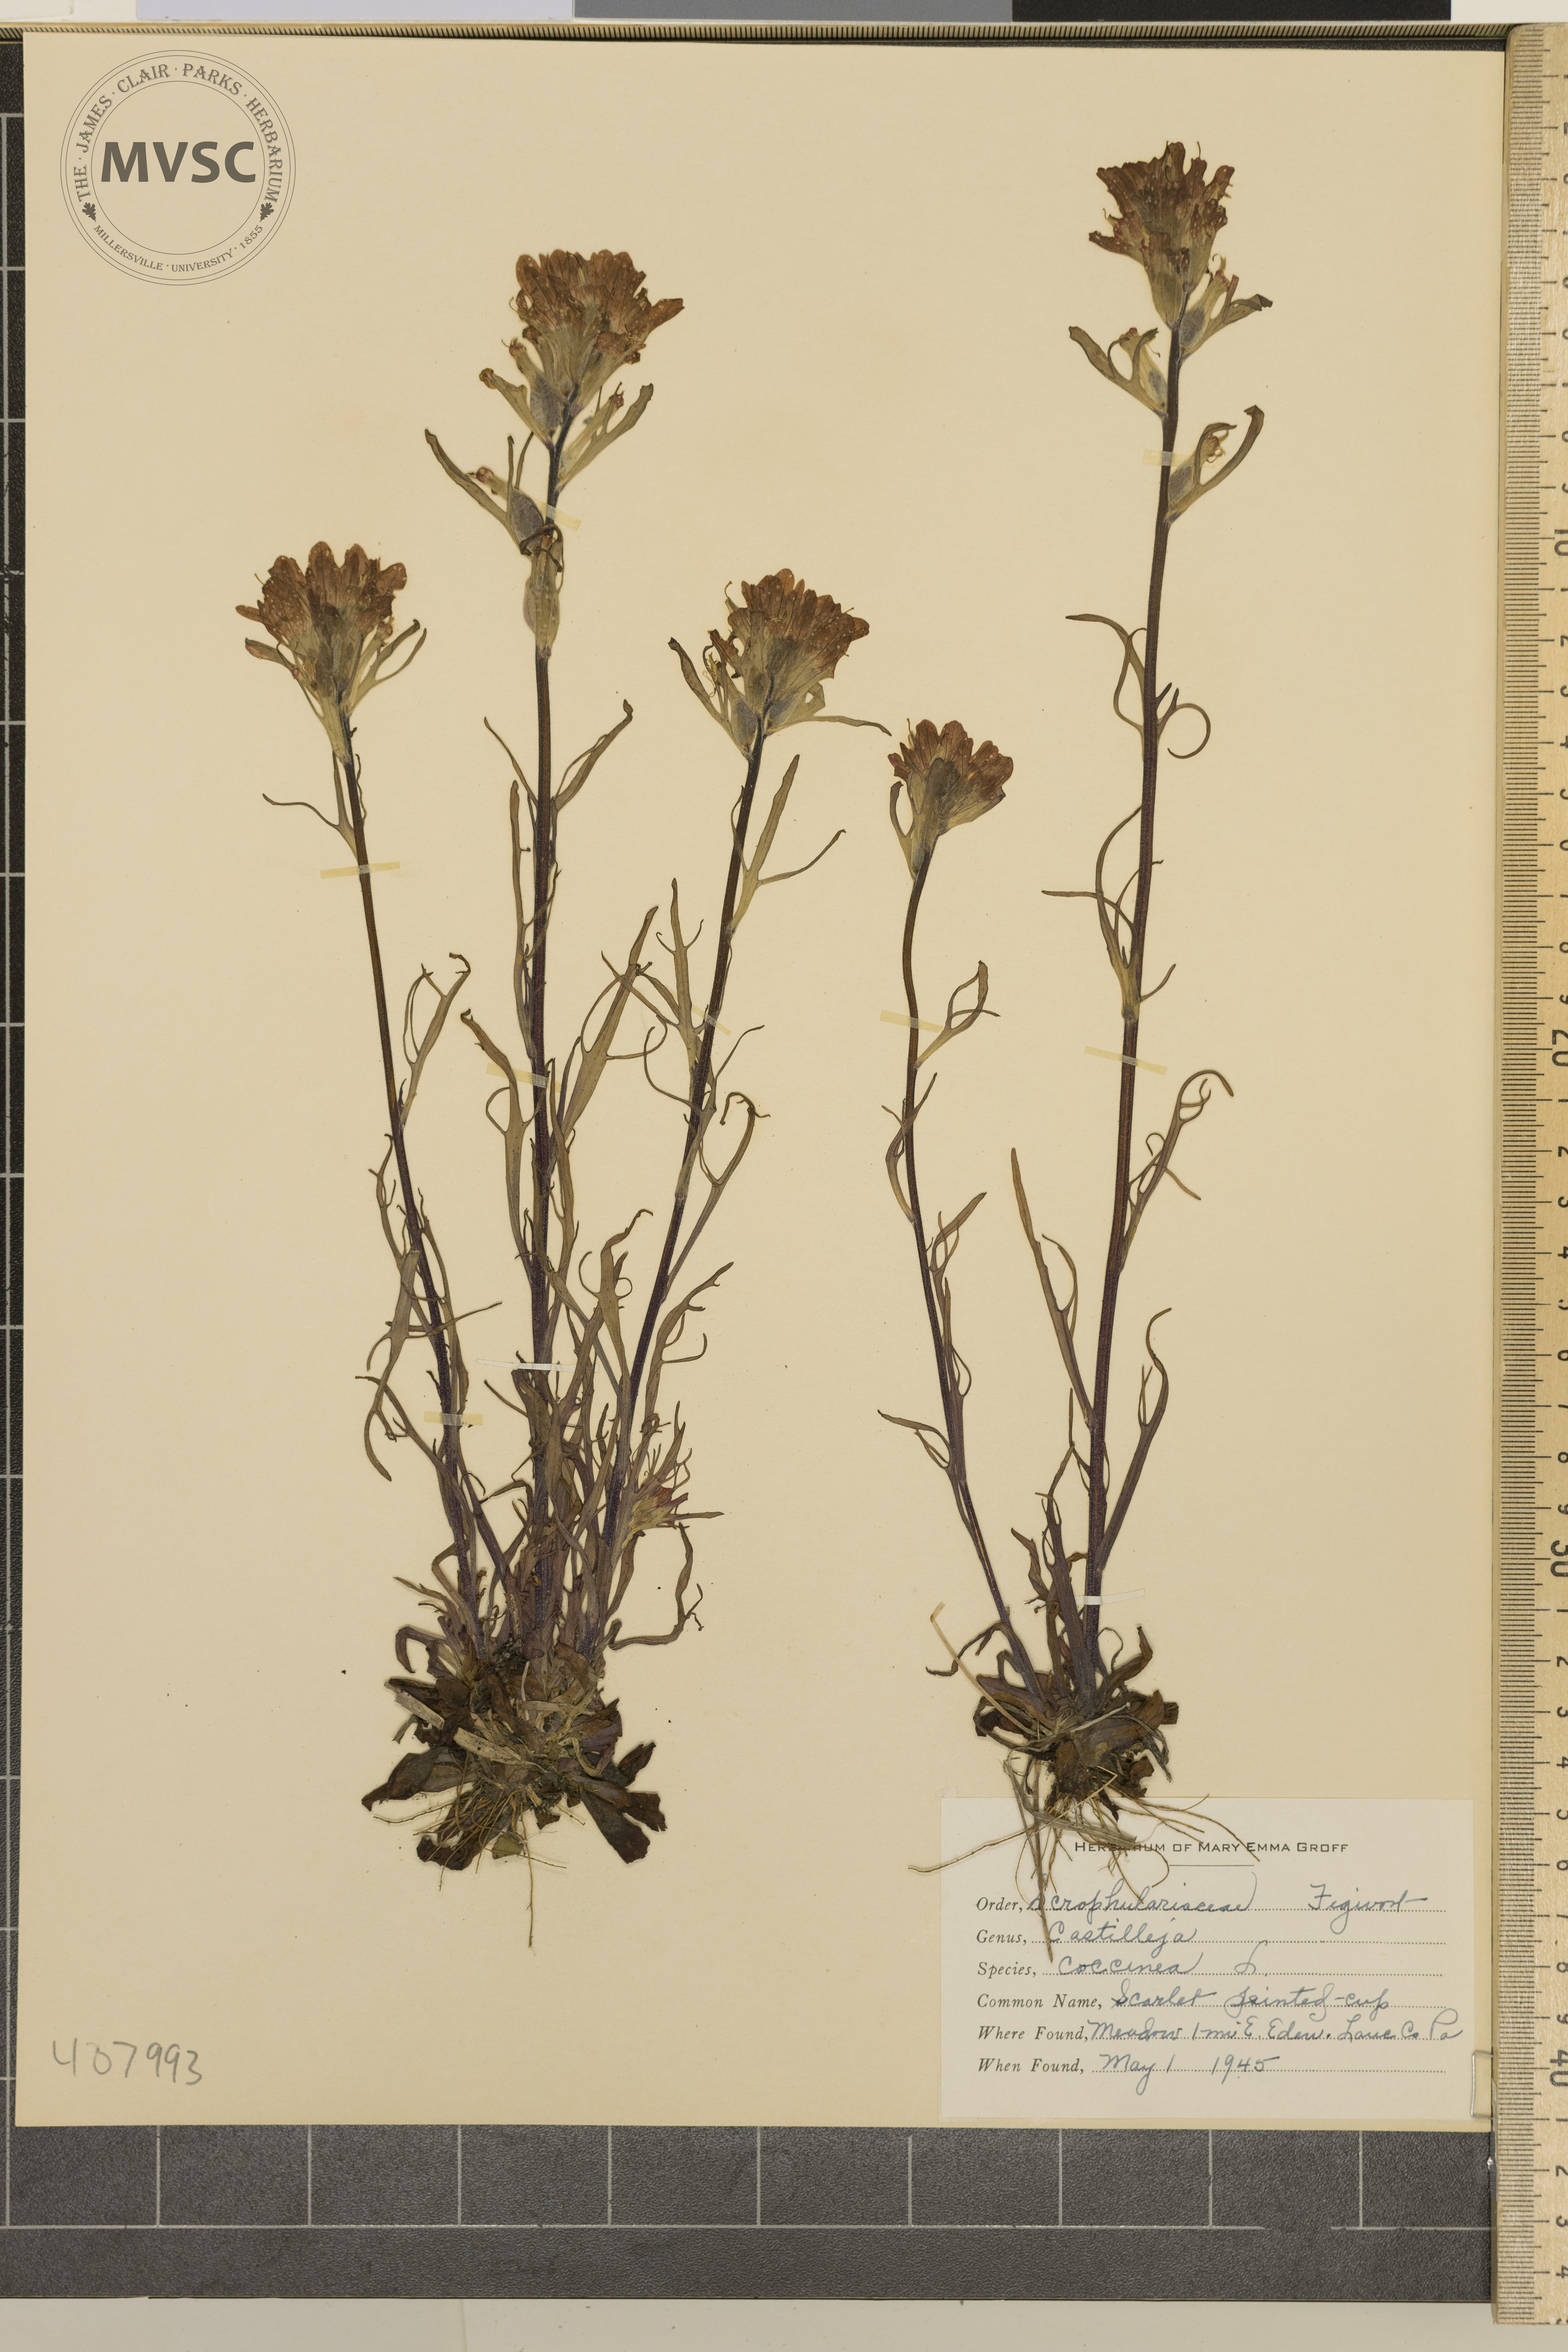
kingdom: Plantae
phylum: Tracheophyta
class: Magnoliopsida
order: Lamiales
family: Orobanchaceae
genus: Castilleja
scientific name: Castilleja coccinea
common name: Scarlet painted-cup
